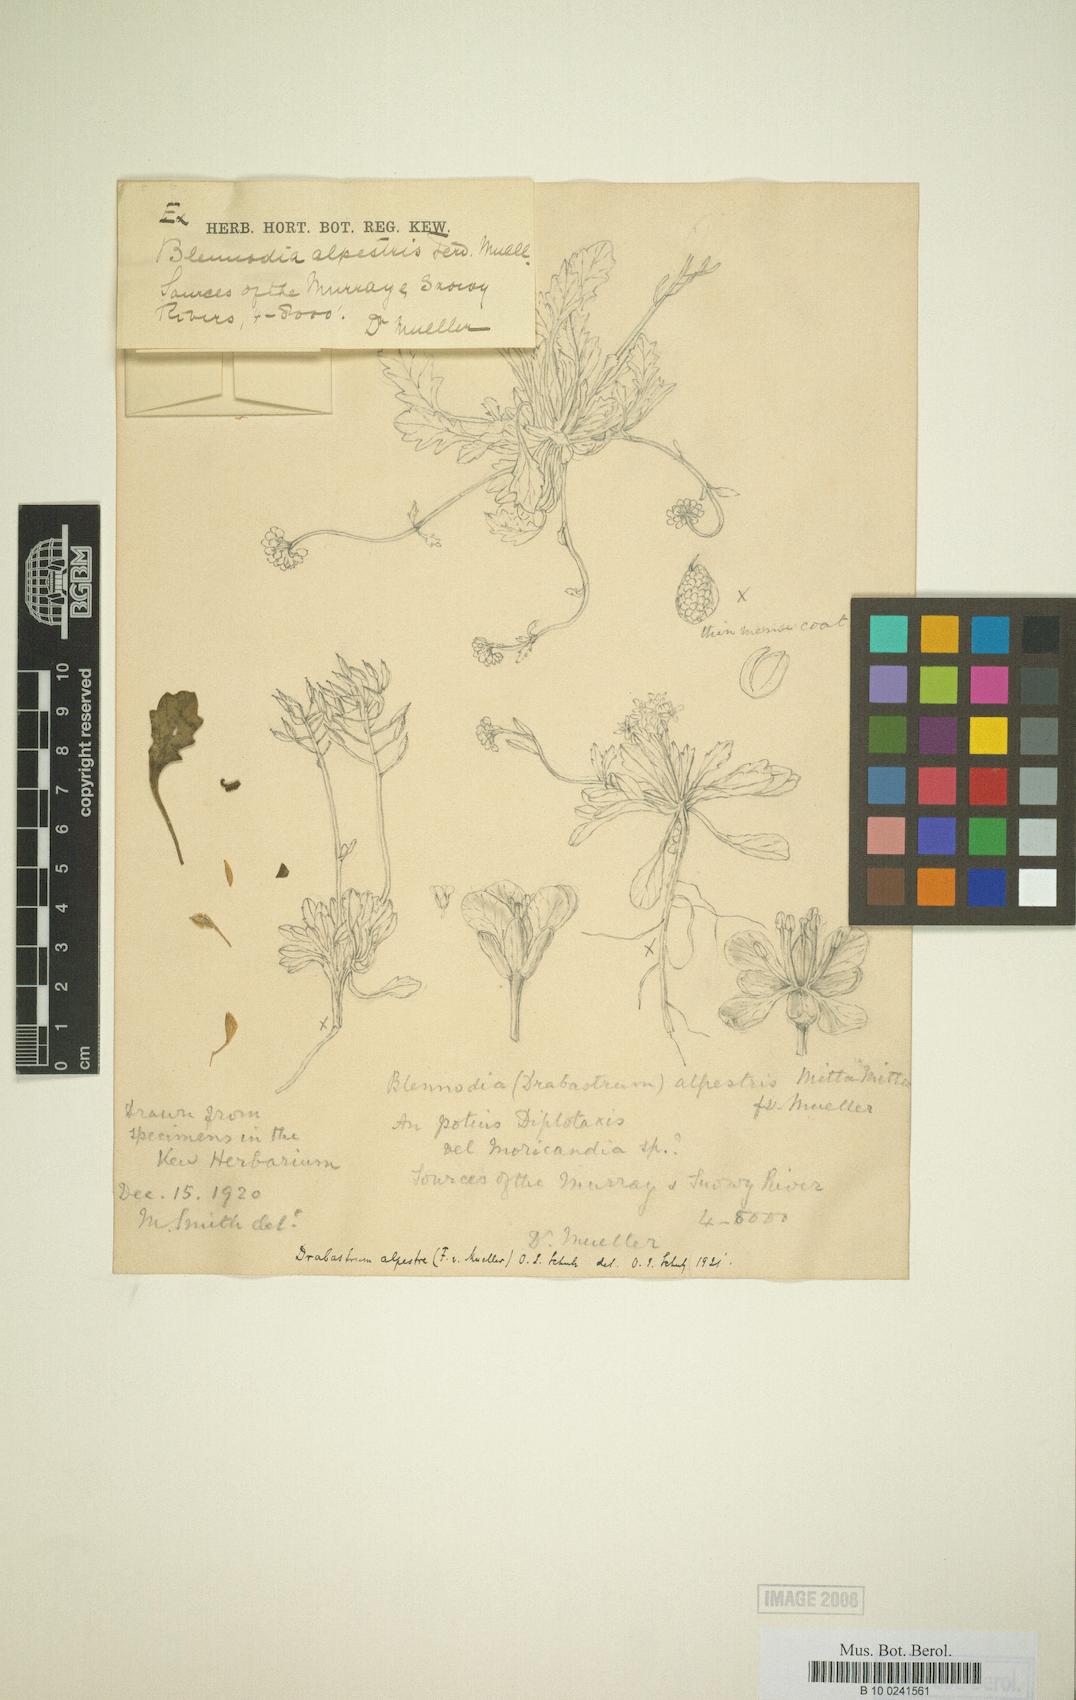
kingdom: Plantae
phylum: Tracheophyta
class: Magnoliopsida
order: Brassicales
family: Brassicaceae
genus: Drabastrum
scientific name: Drabastrum alpestre
